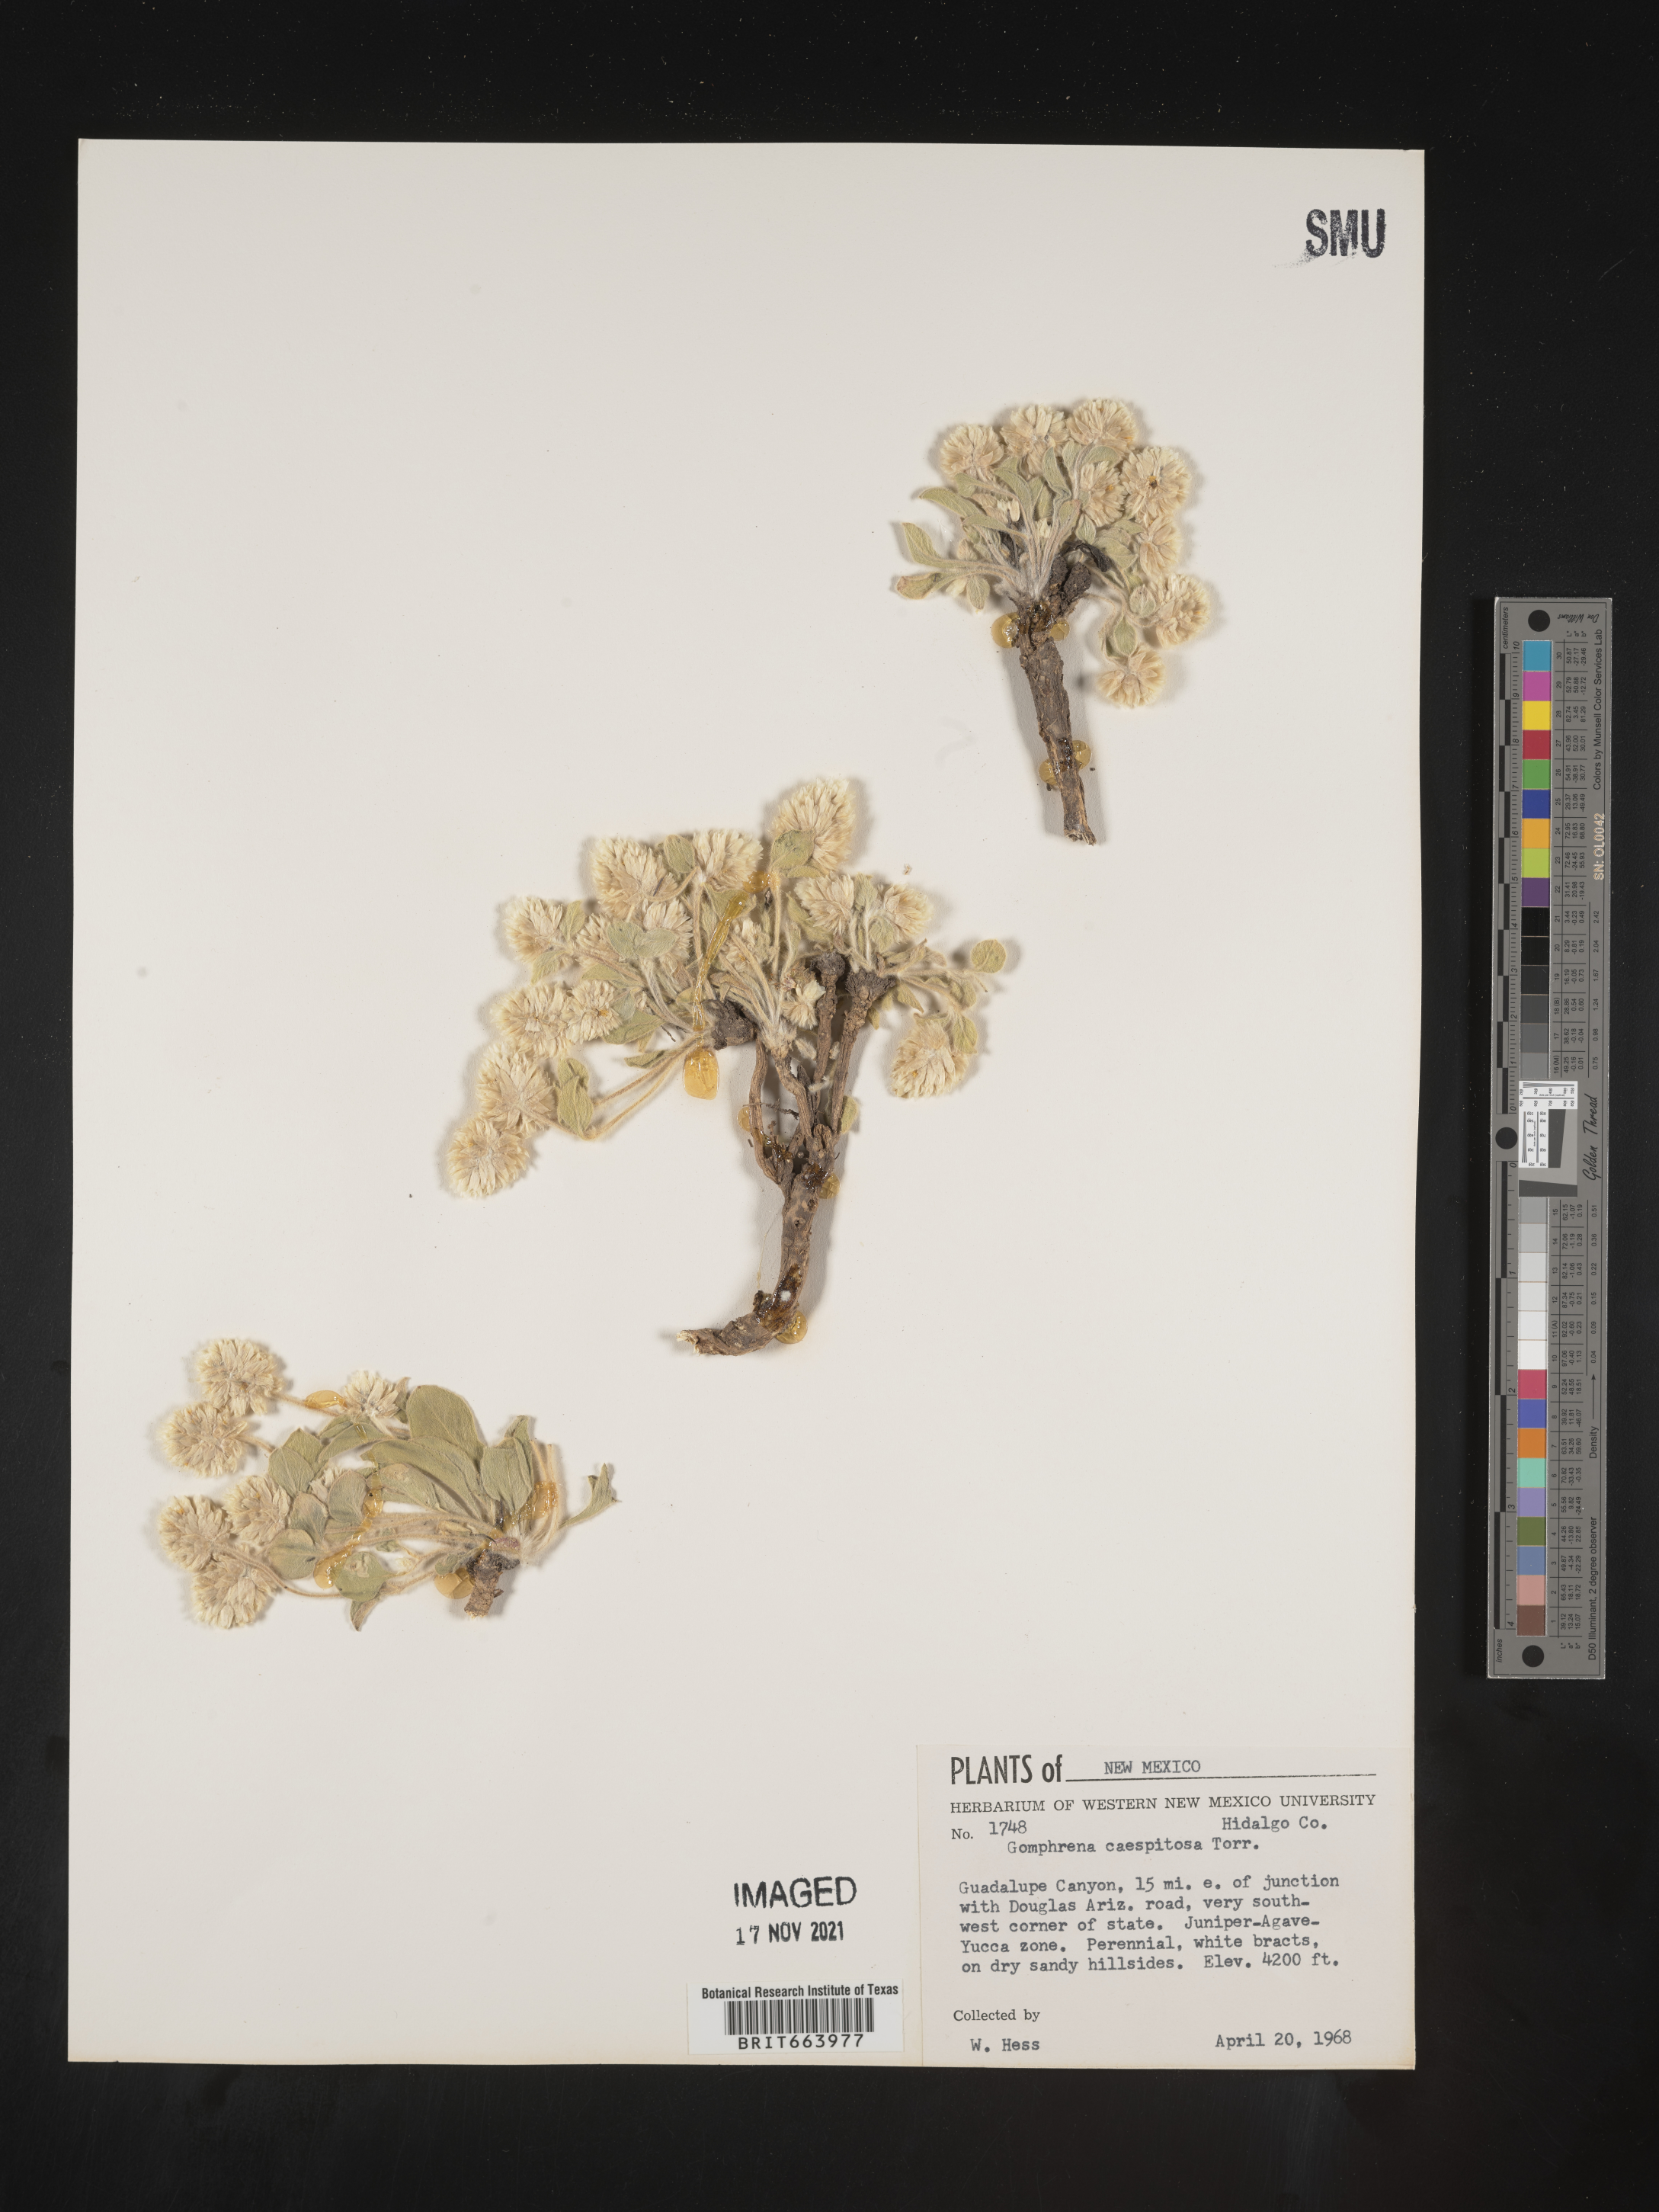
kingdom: Plantae
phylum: Tracheophyta
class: Magnoliopsida
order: Caryophyllales
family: Amaranthaceae
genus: Gomphrena
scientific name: Gomphrena
